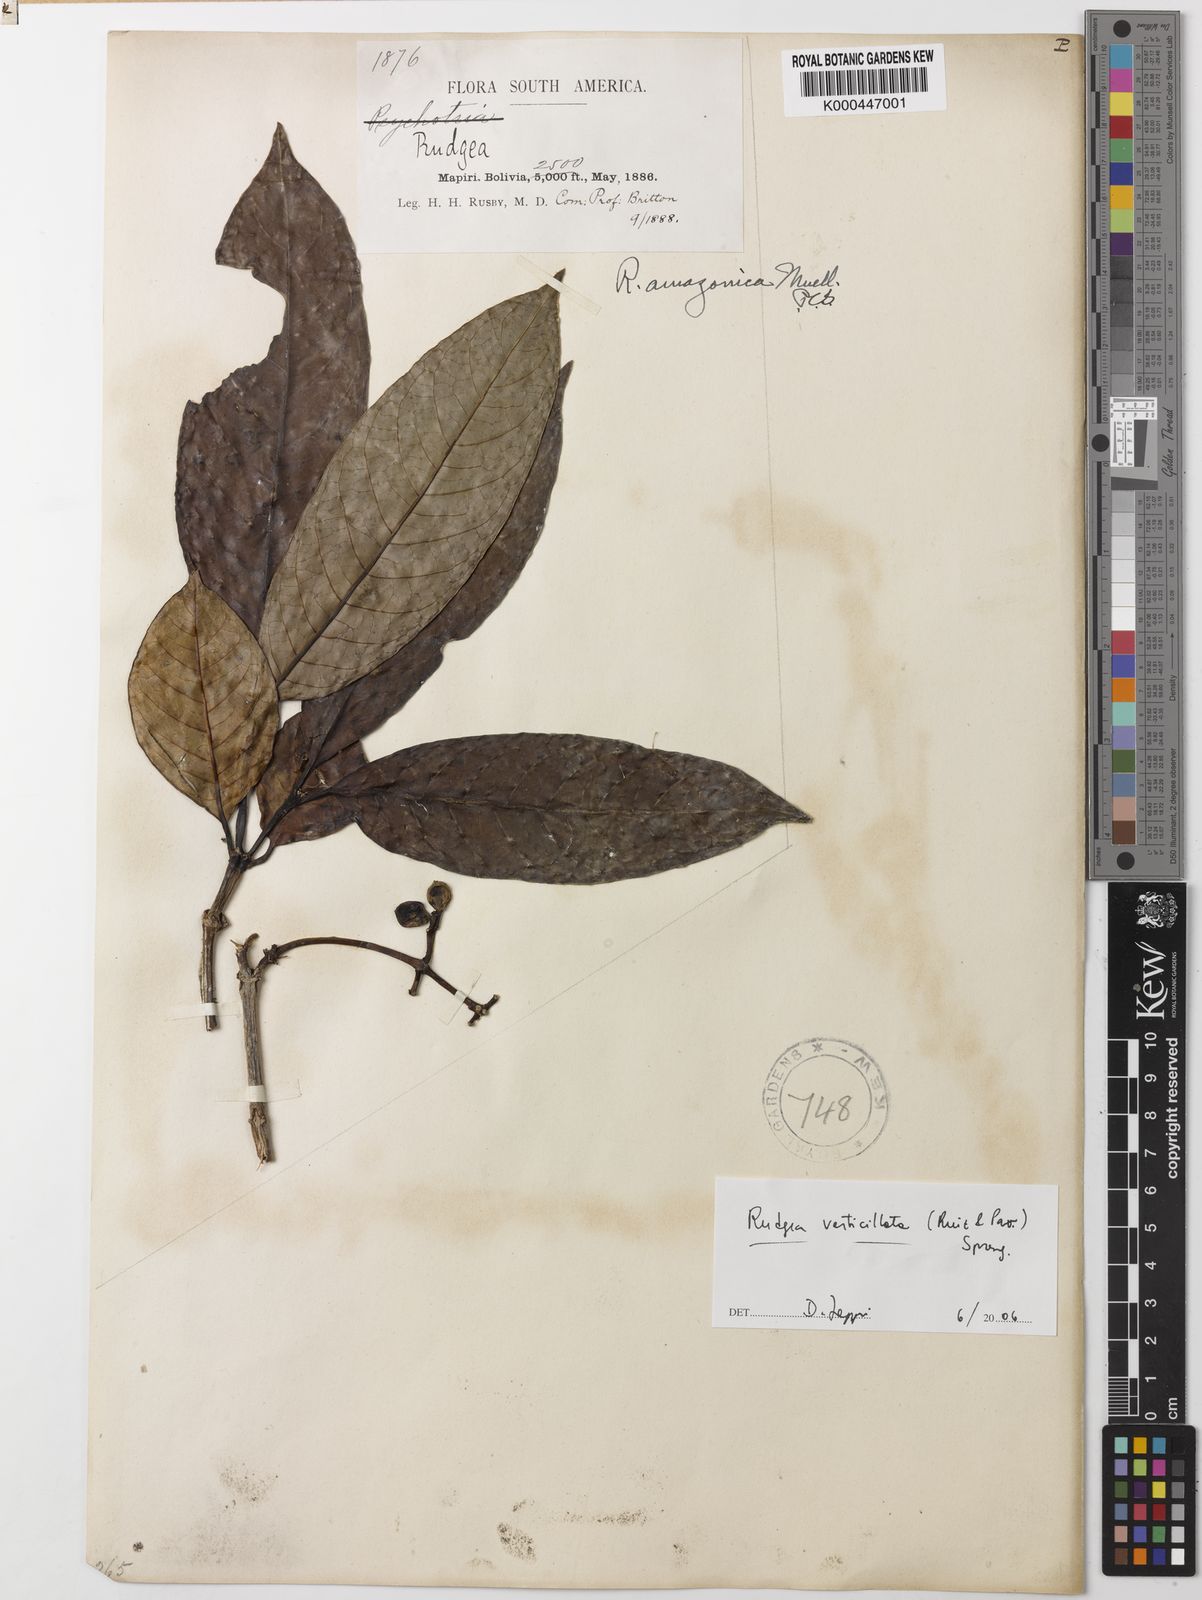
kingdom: Plantae
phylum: Tracheophyta
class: Magnoliopsida
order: Gentianales
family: Rubiaceae
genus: Rudgea
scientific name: Rudgea verticillata
